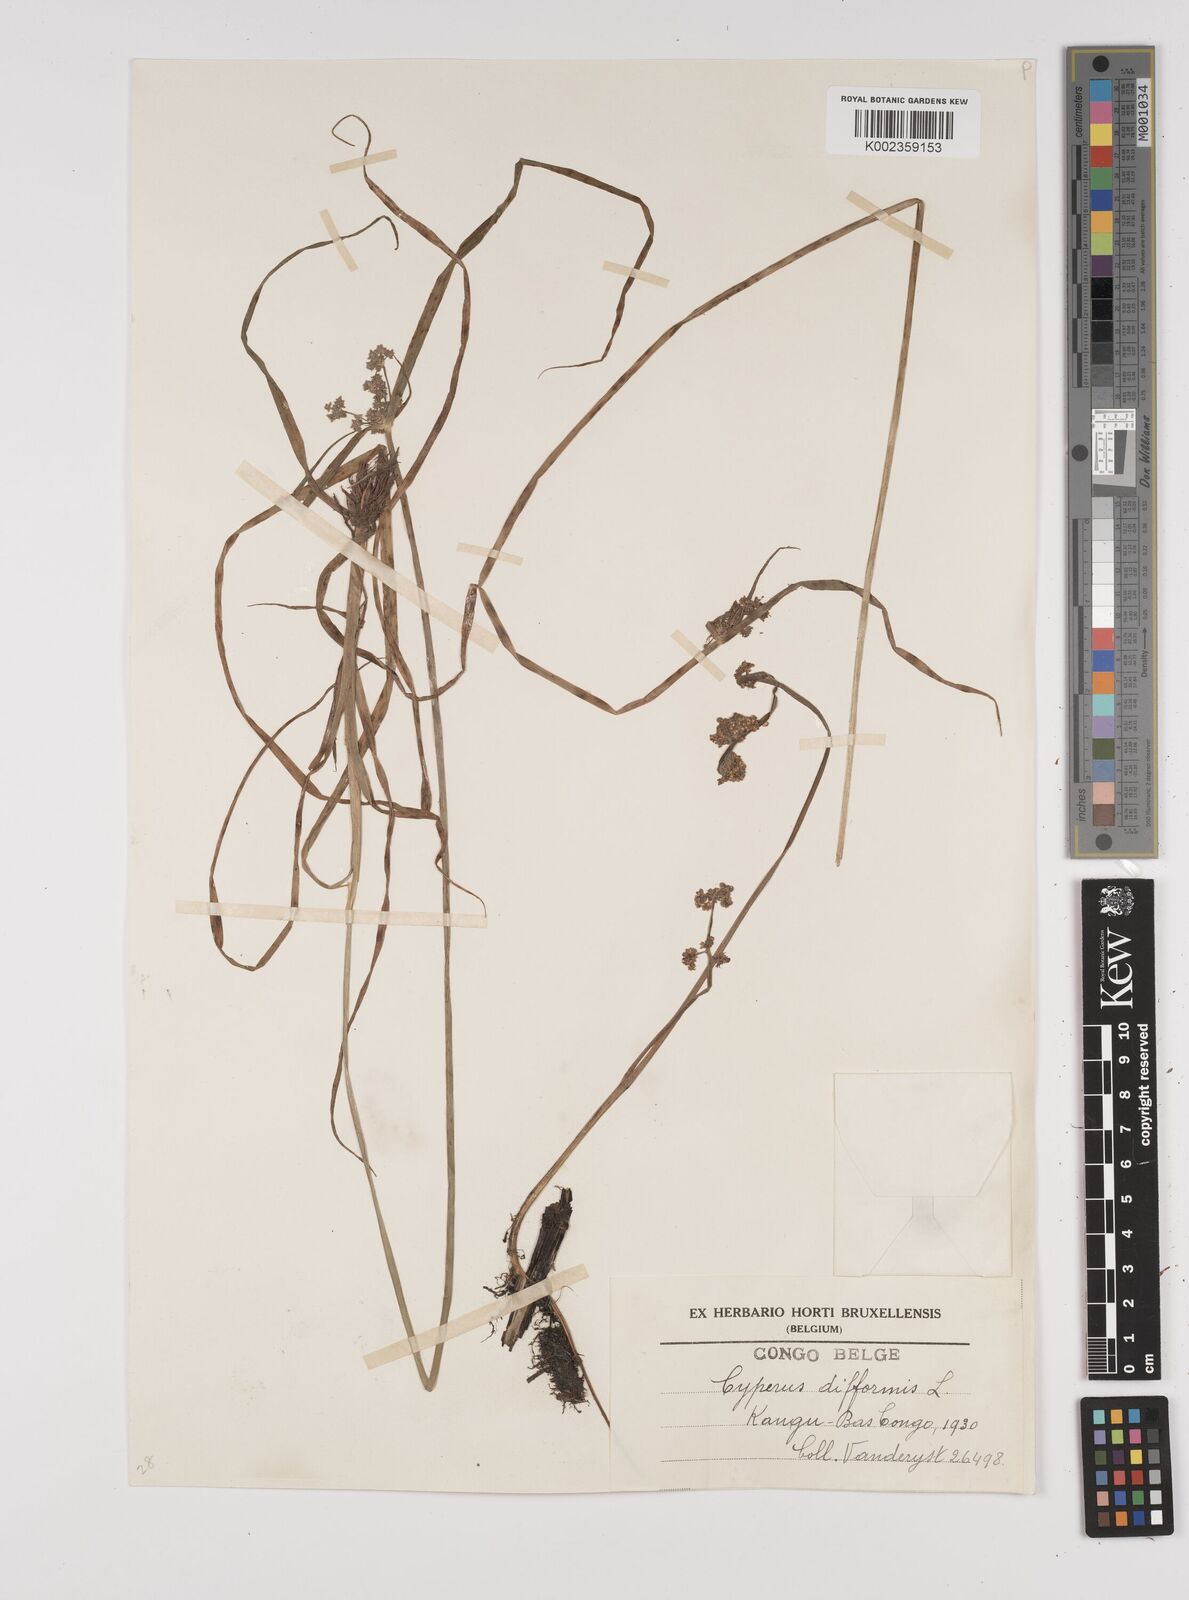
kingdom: Plantae
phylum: Tracheophyta
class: Liliopsida
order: Poales
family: Cyperaceae
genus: Cyperus
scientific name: Cyperus difformis
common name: Variable flatsedge
